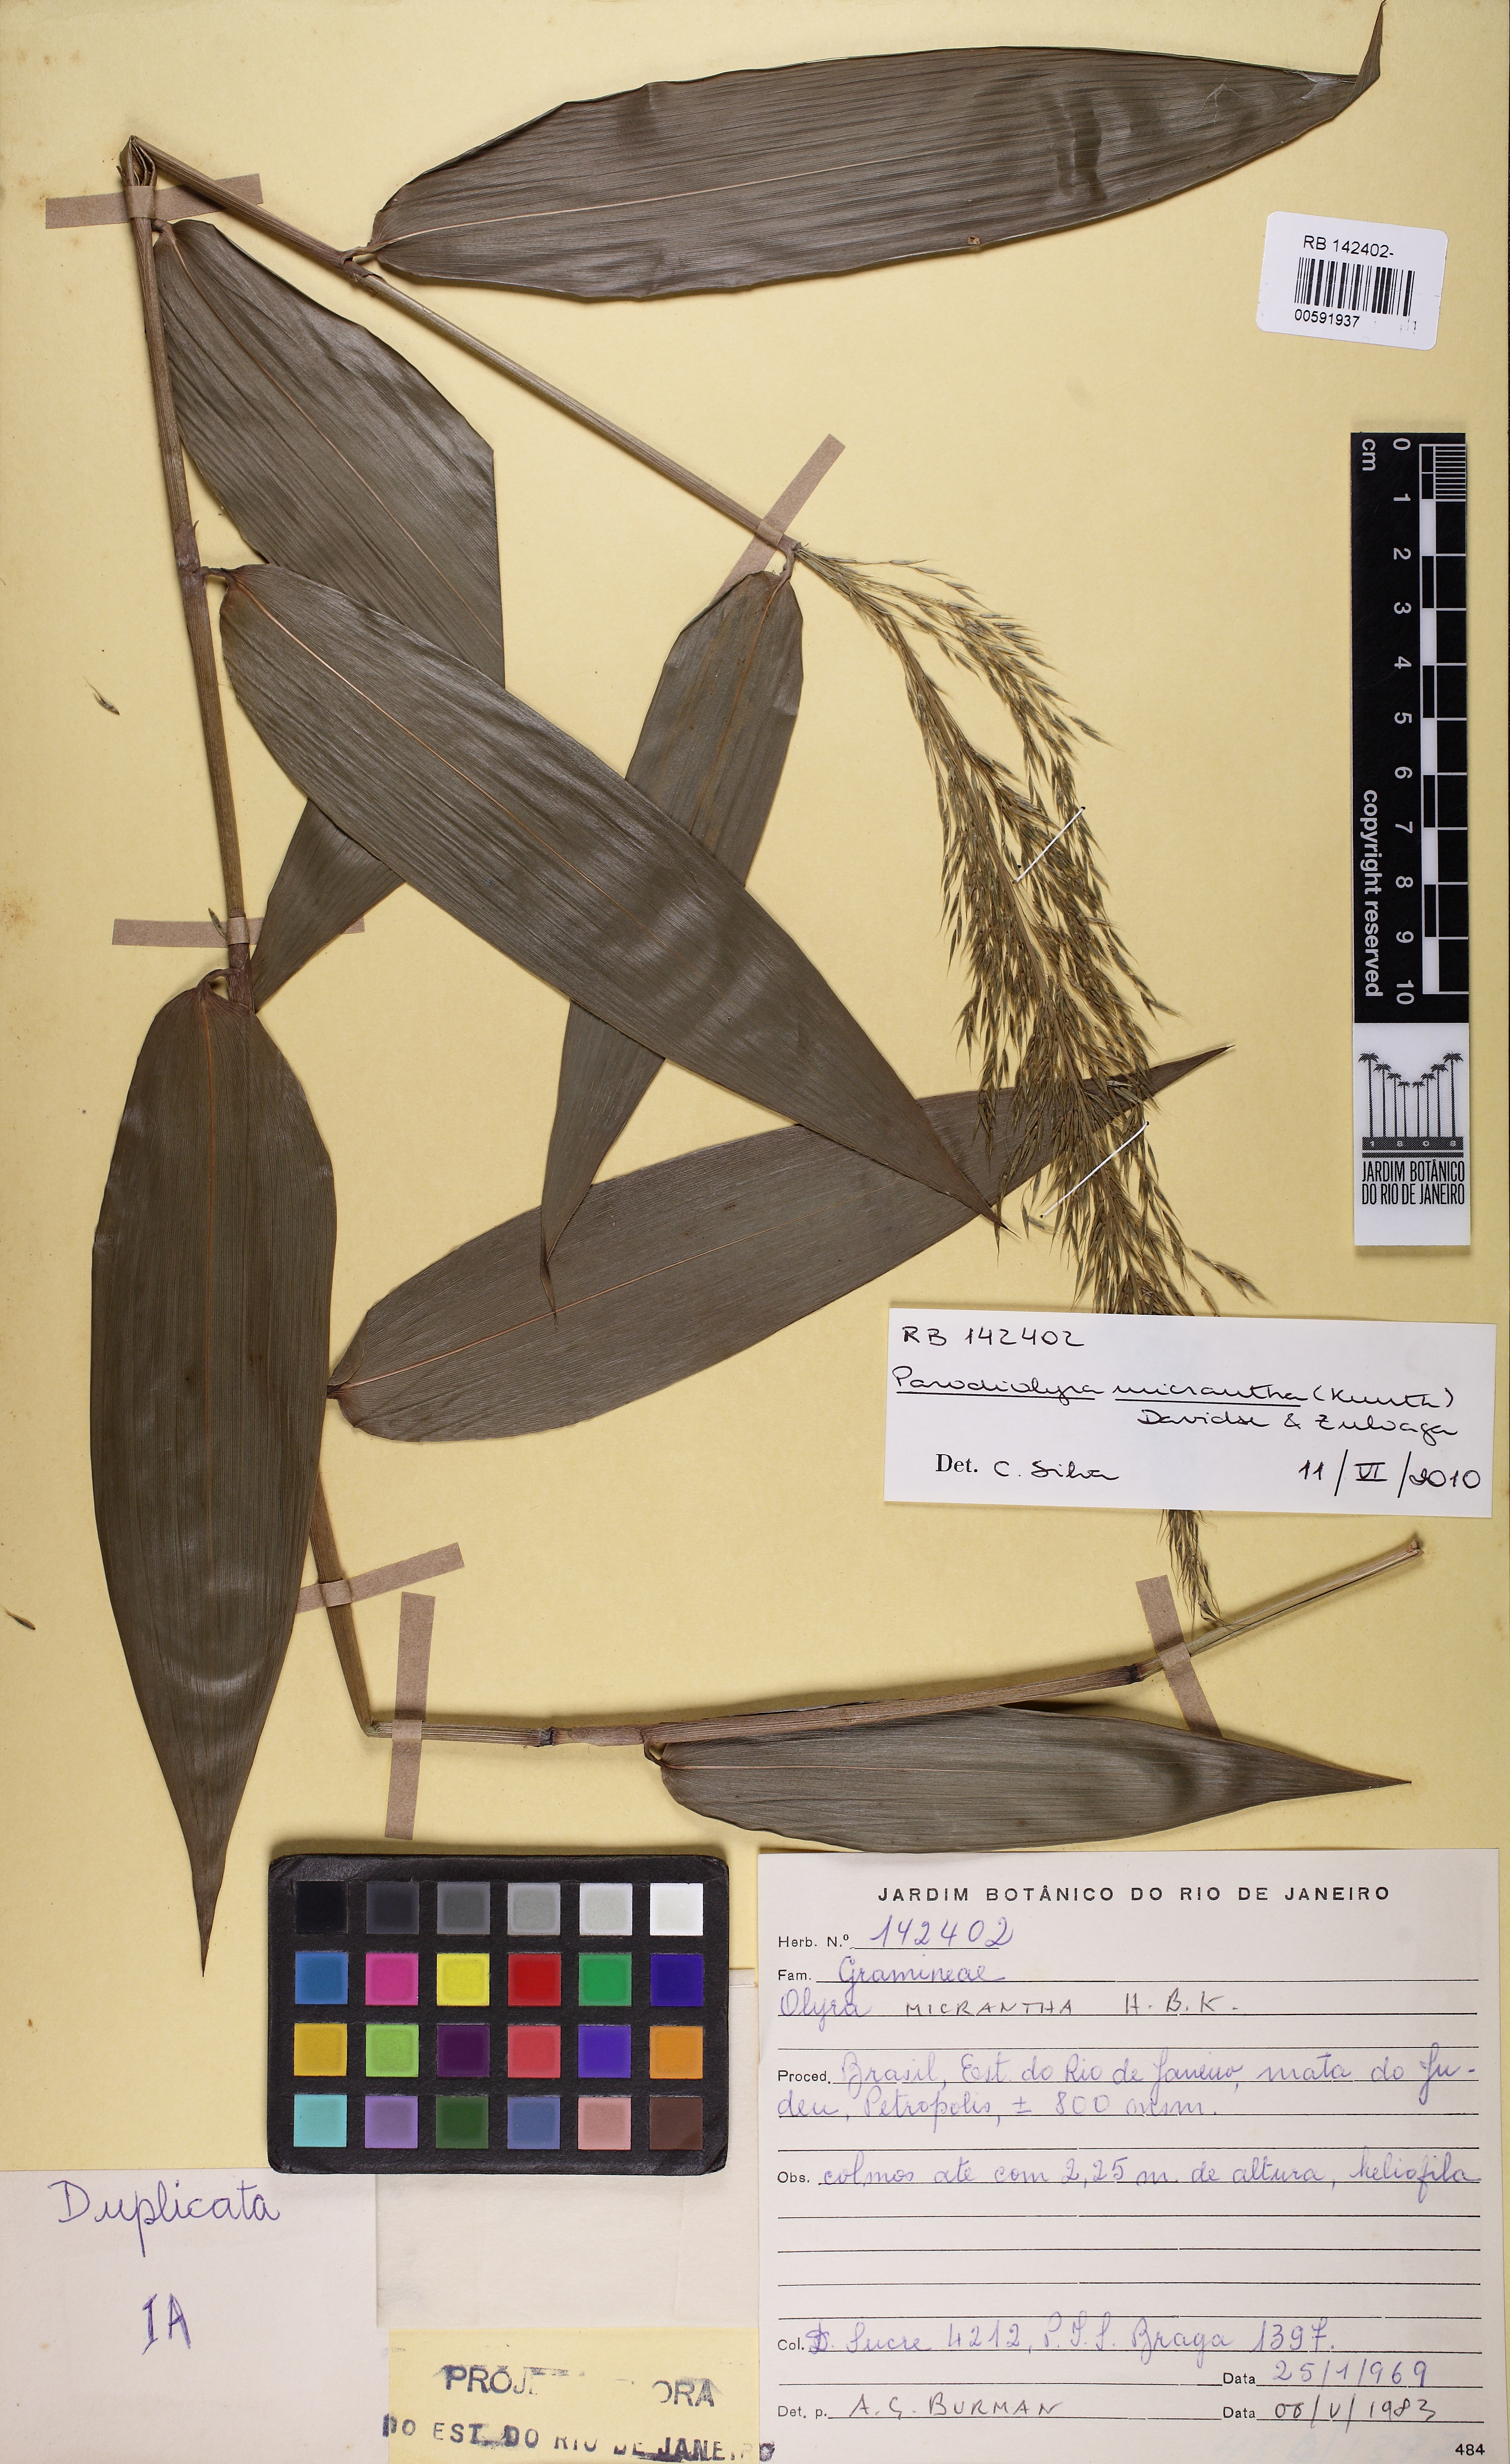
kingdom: Plantae
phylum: Tracheophyta
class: Liliopsida
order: Poales
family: Poaceae
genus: Taquara
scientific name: Taquara micrantha
